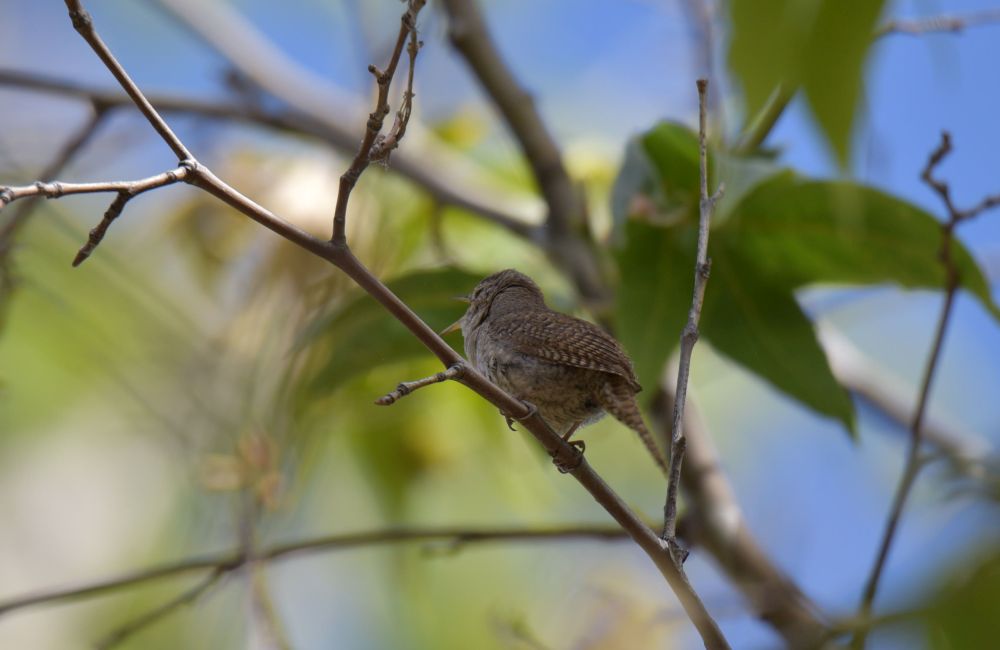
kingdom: Animalia
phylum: Chordata
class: Aves
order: Passeriformes
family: Troglodytidae
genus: Troglodytes
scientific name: Troglodytes aedon
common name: House wren
